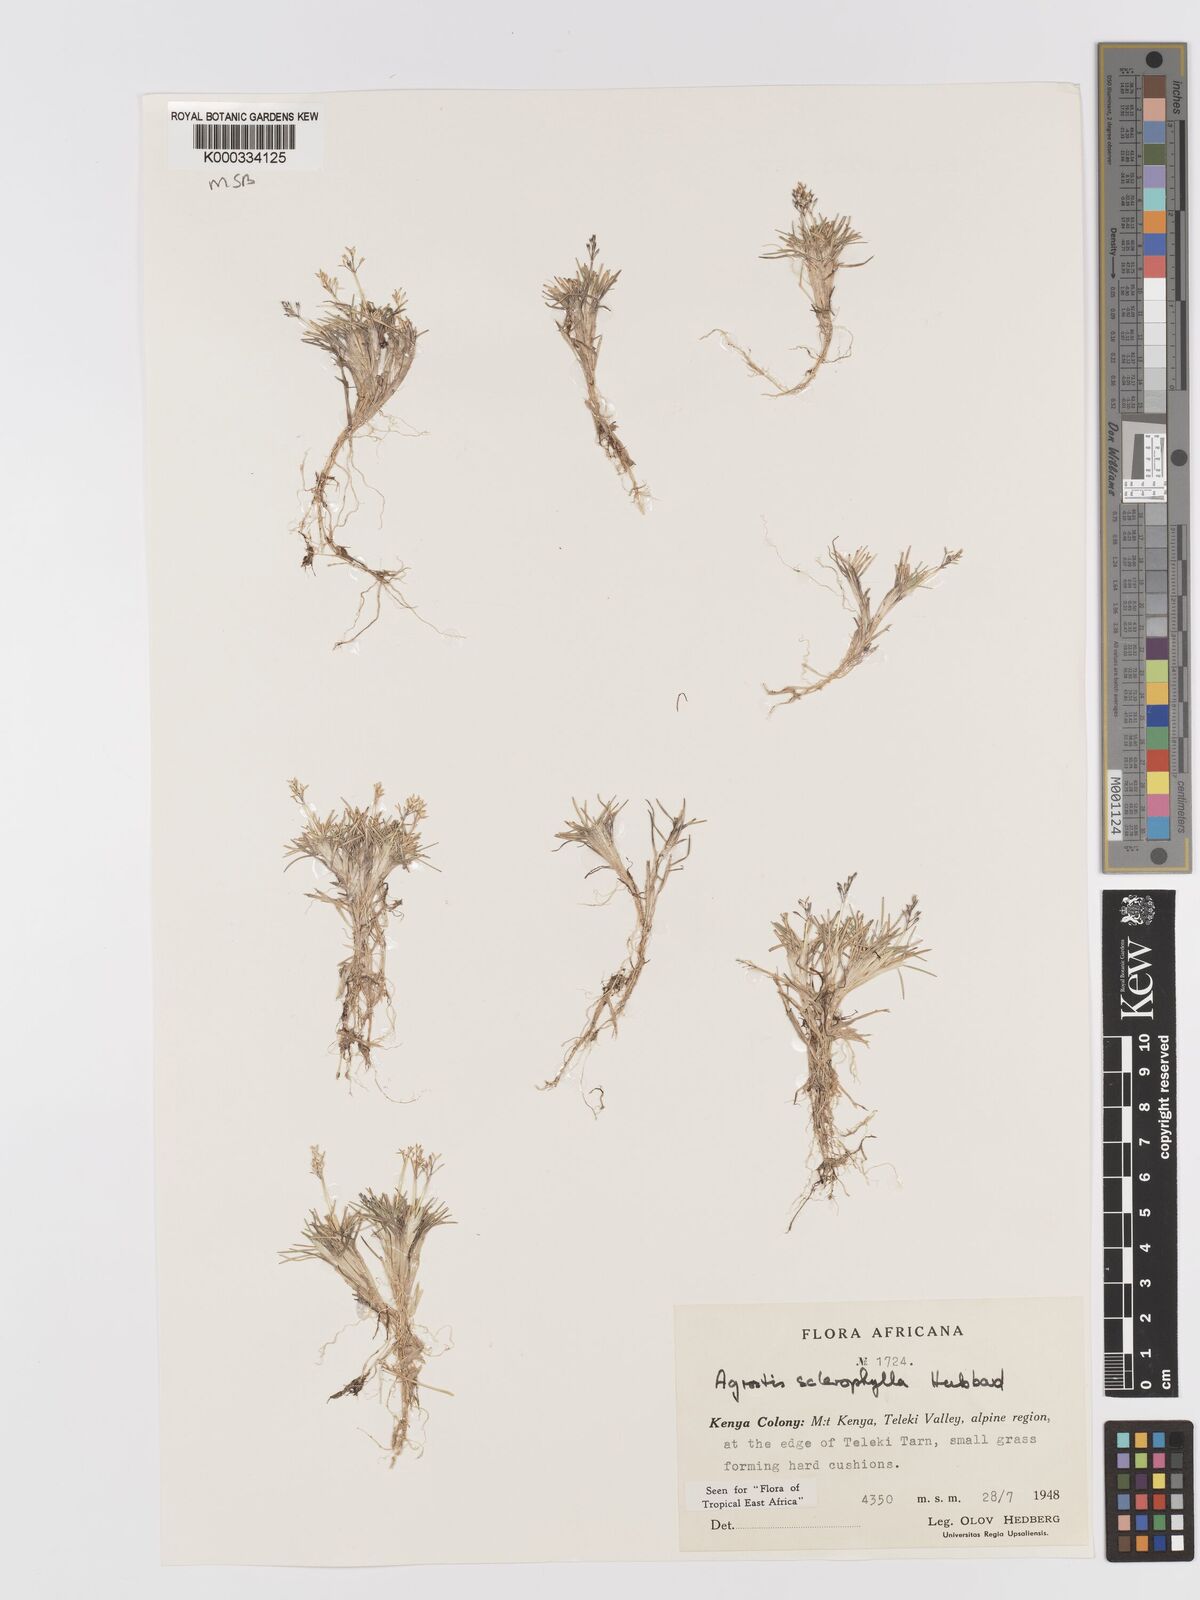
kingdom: Plantae
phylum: Tracheophyta
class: Liliopsida
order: Poales
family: Poaceae
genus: Agrostis
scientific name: Agrostis sclerophylla
